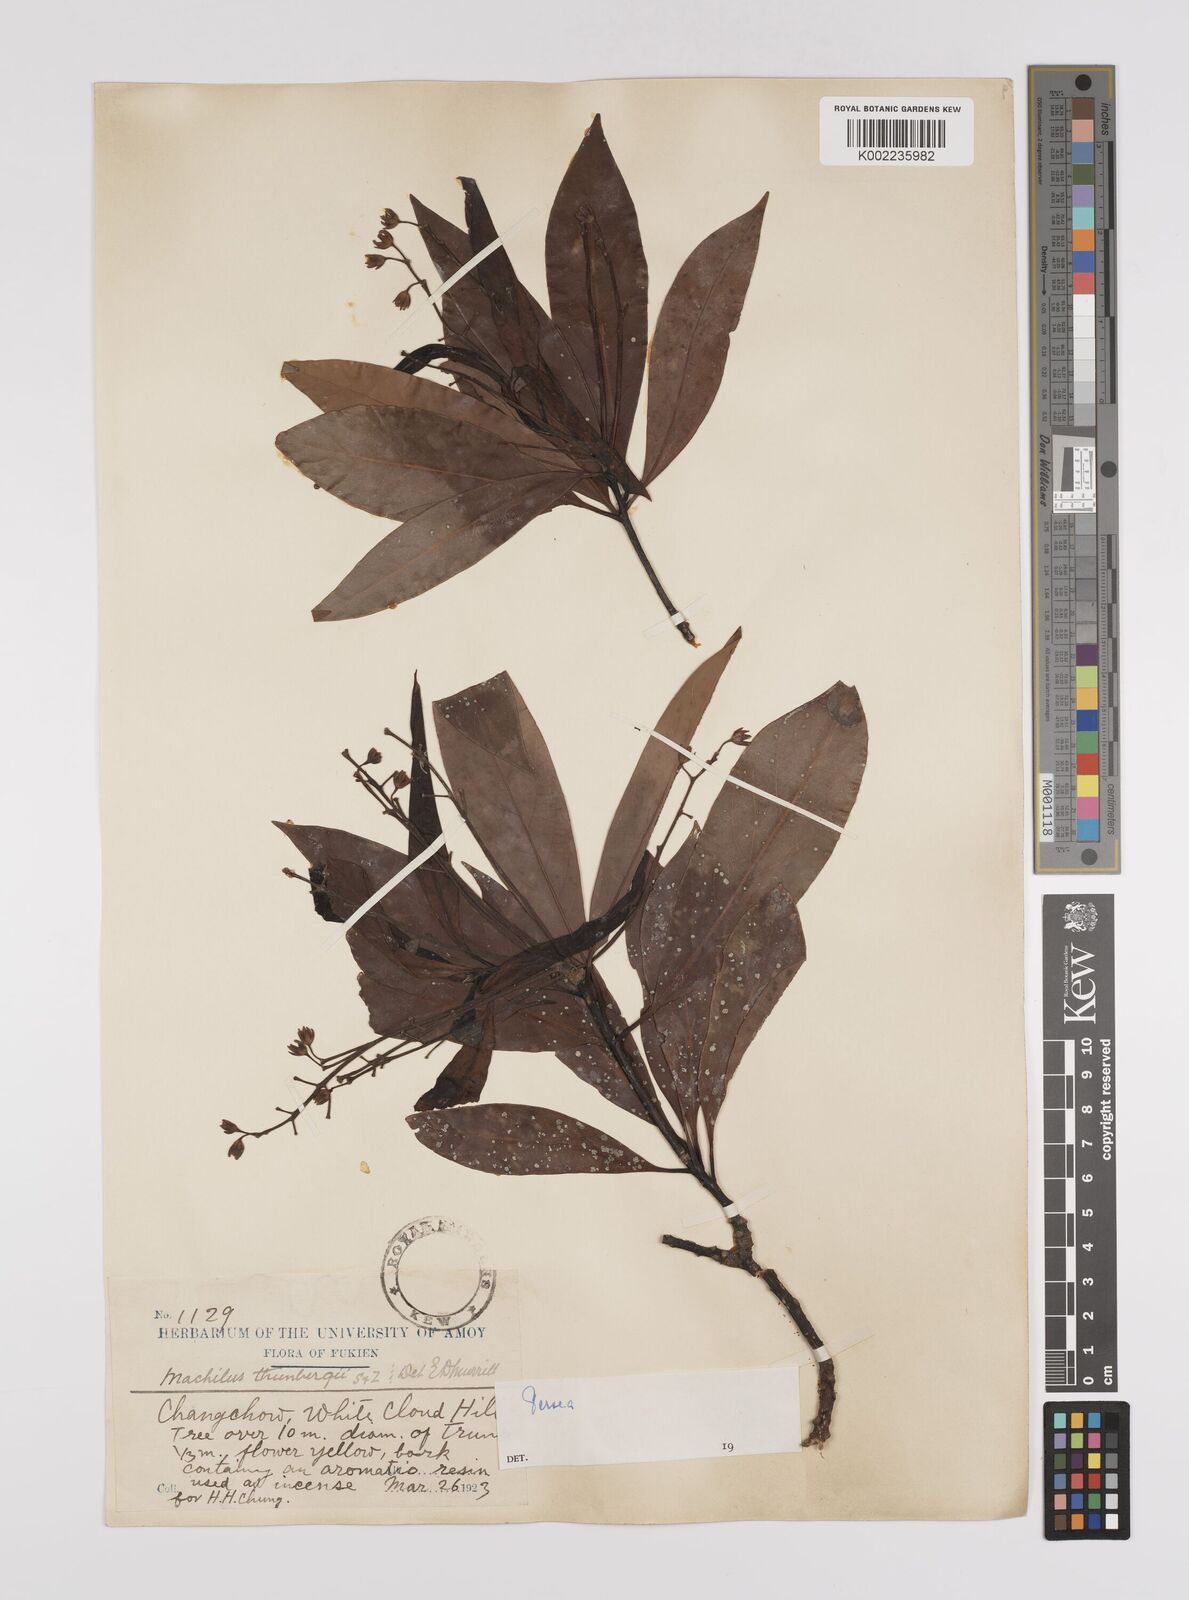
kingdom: Plantae
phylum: Tracheophyta
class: Magnoliopsida
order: Laurales
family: Lauraceae
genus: Persea
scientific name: Persea
